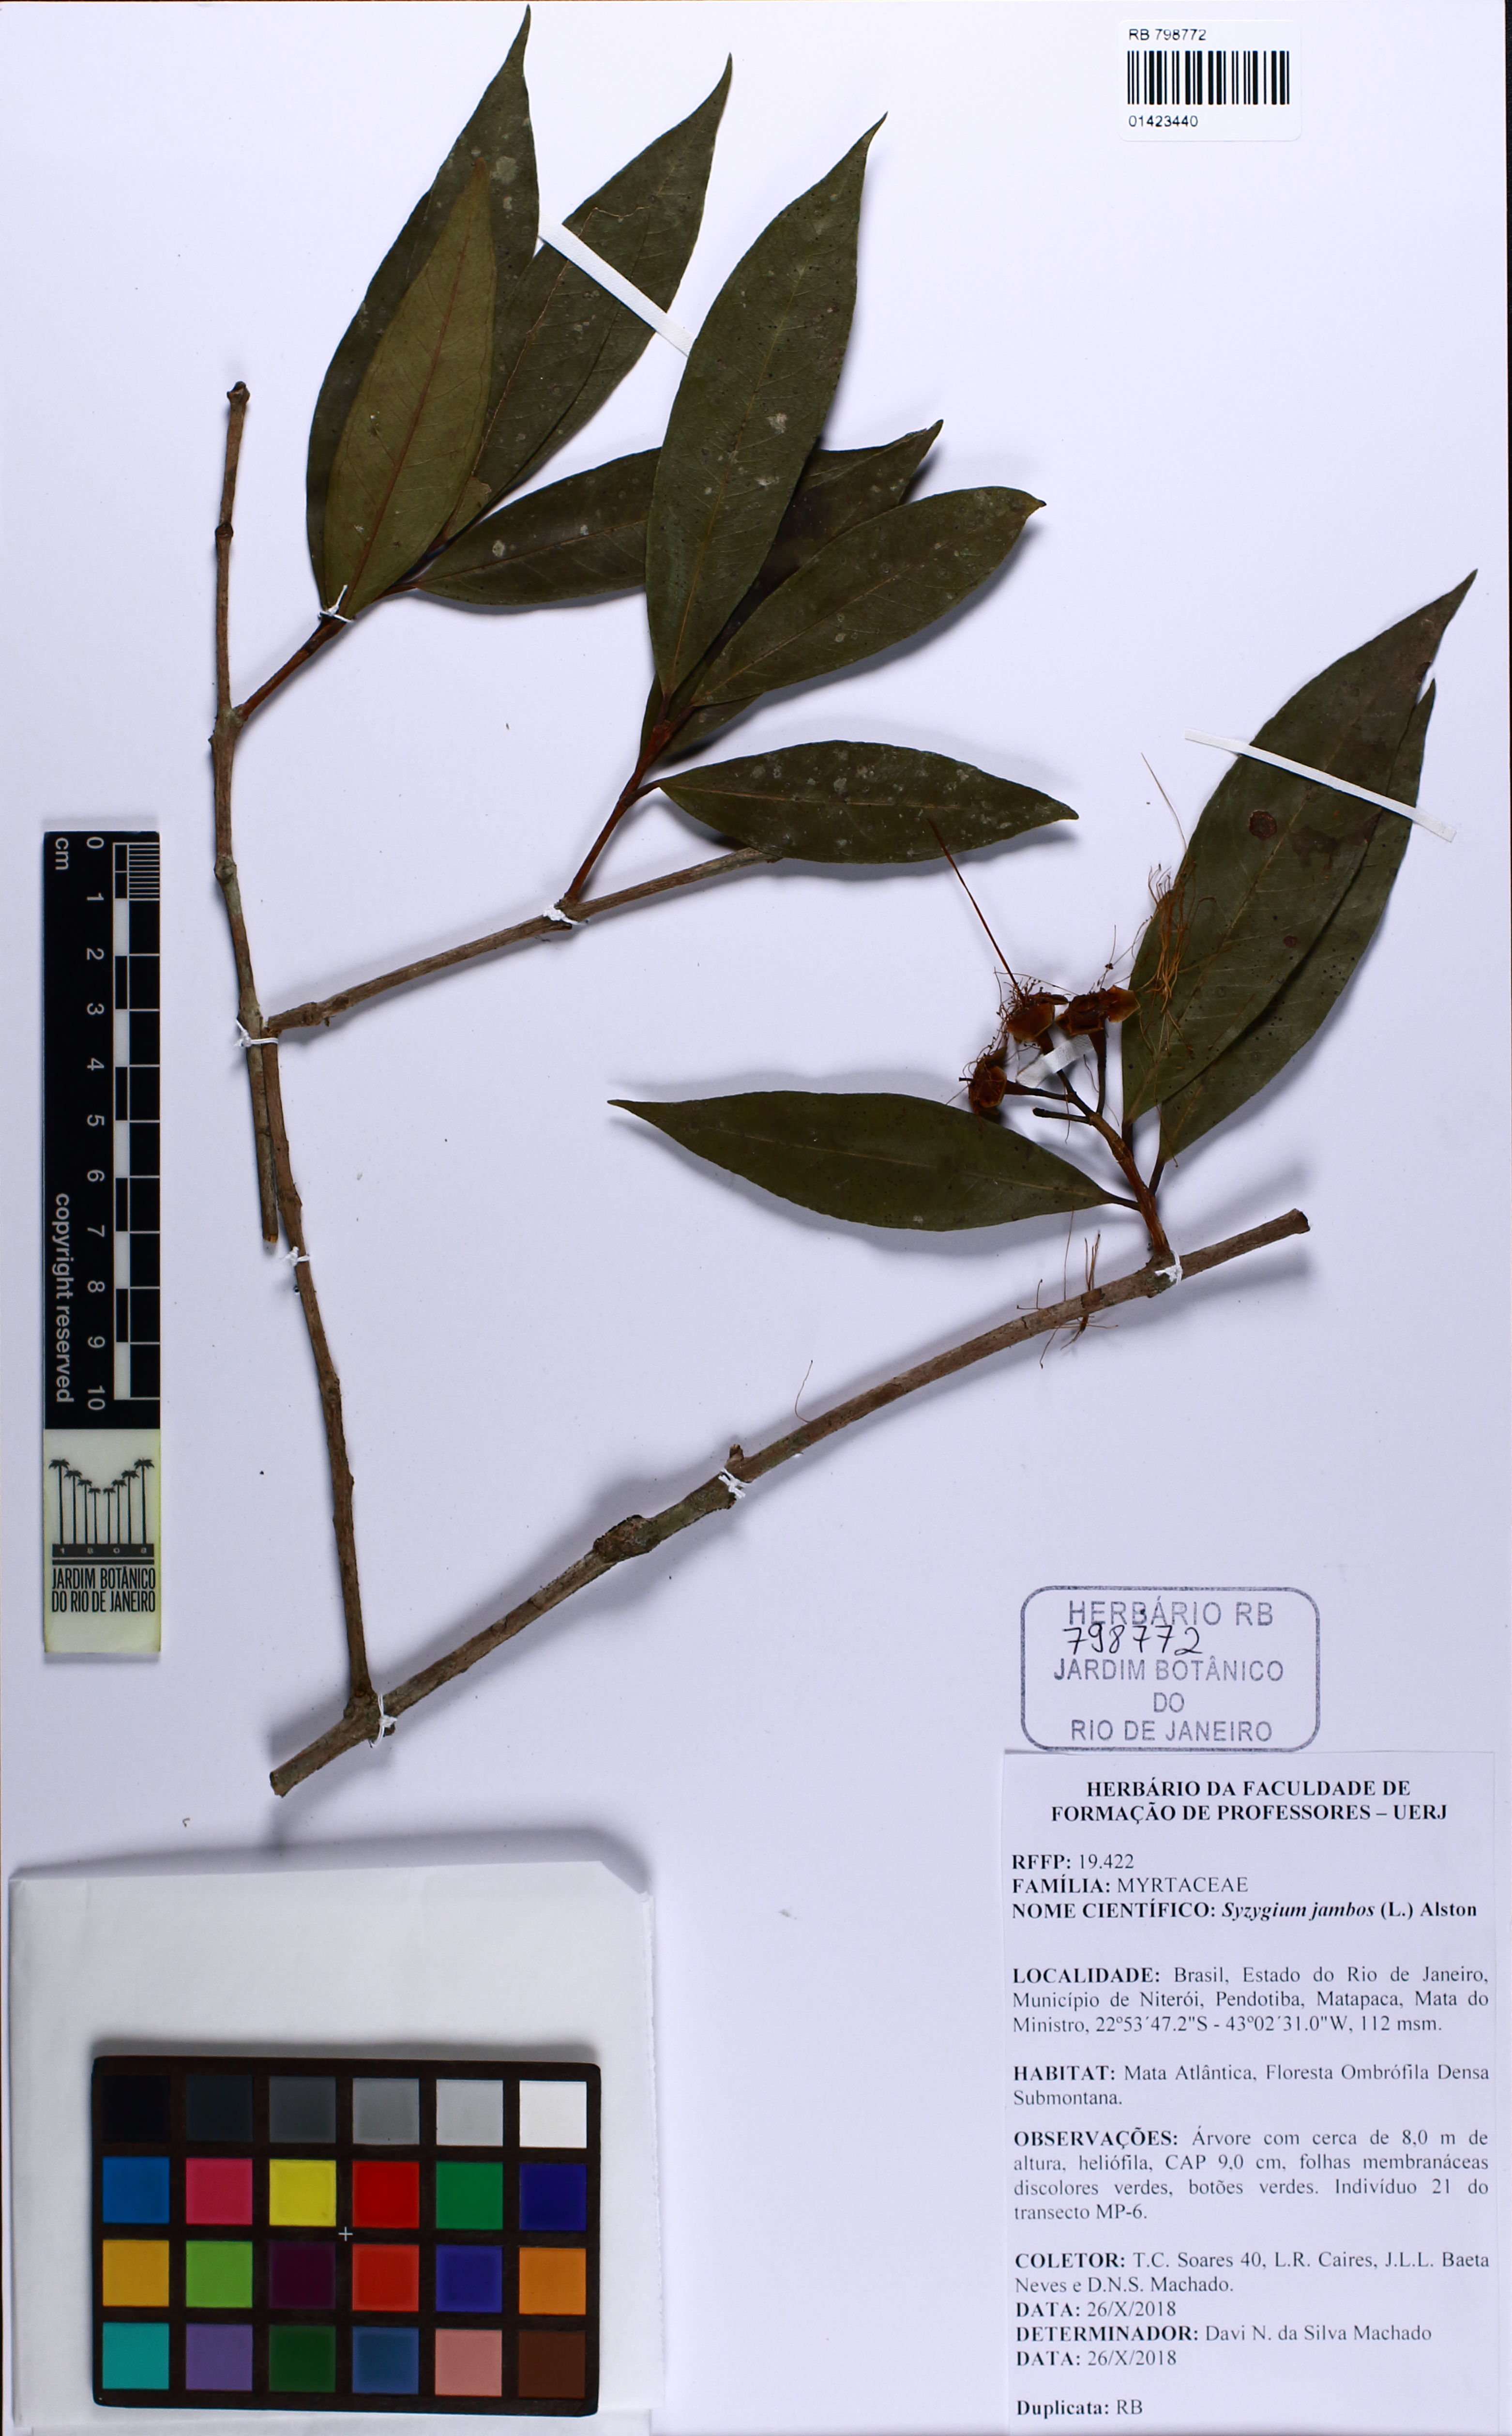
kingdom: Plantae
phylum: Tracheophyta
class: Magnoliopsida
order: Myrtales
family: Myrtaceae
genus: Syzygium
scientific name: Syzygium jambos
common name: Malabar plum
